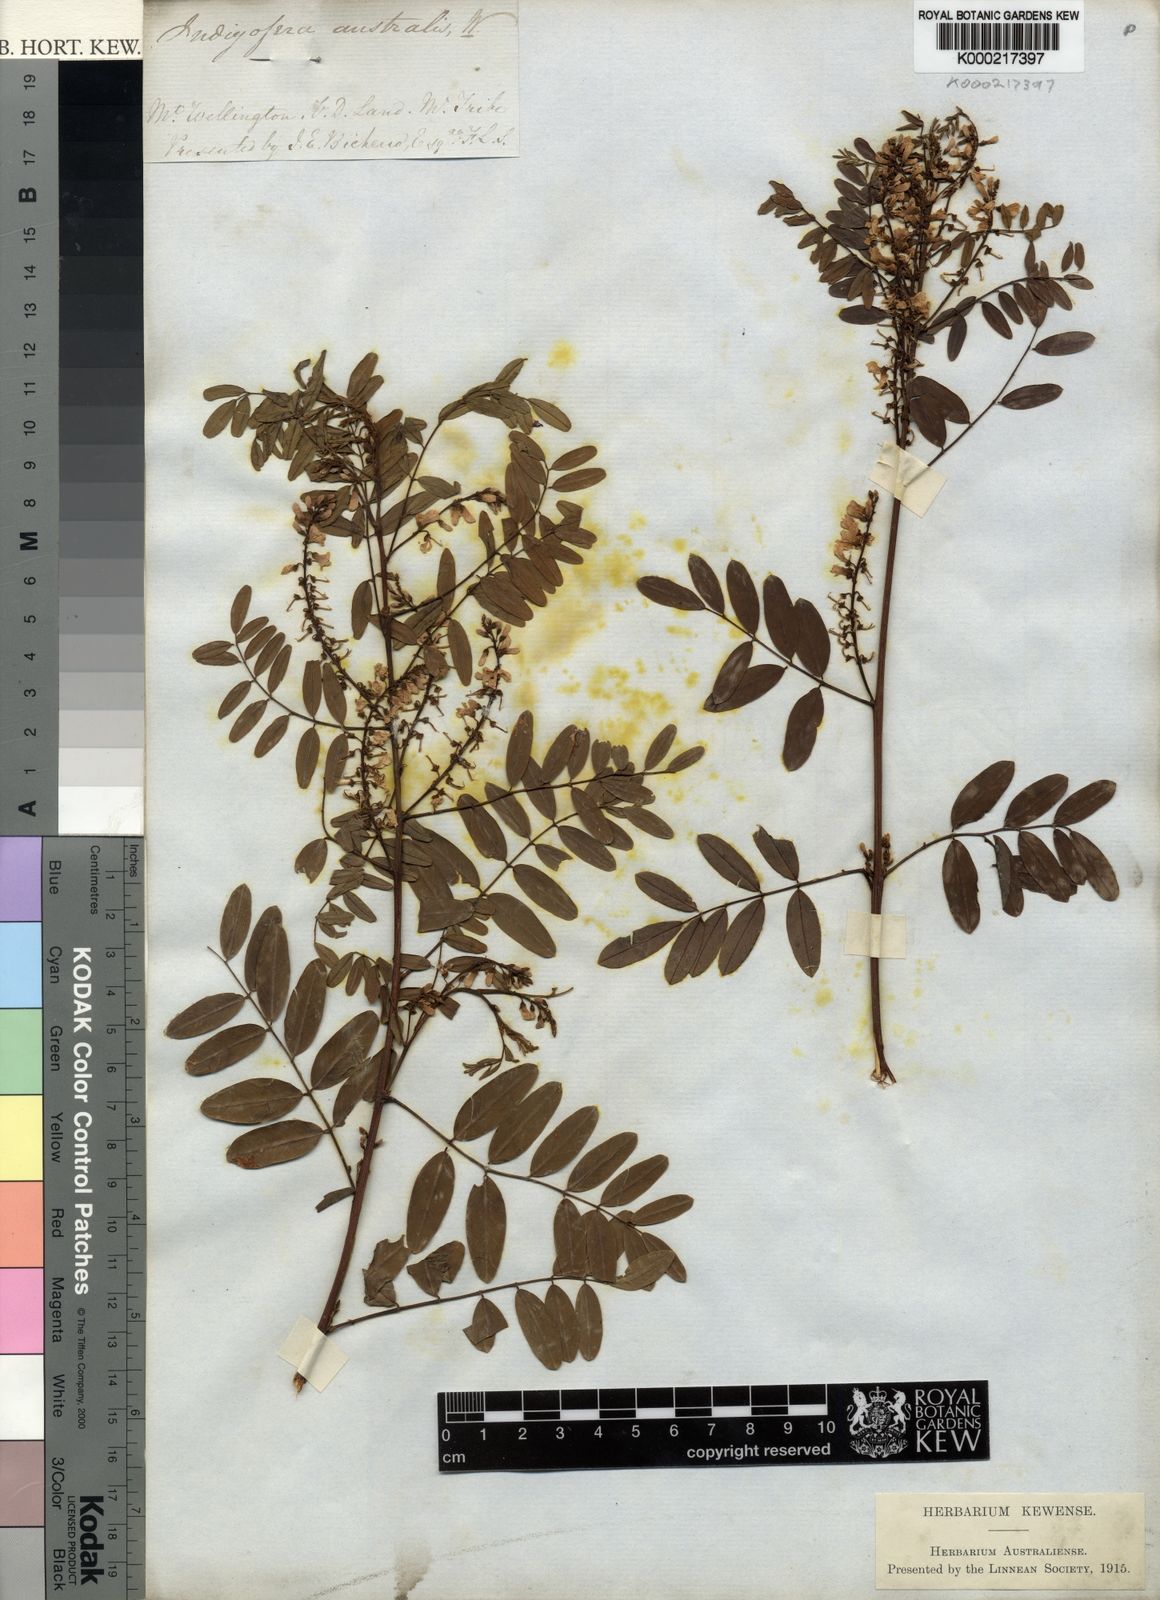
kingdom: Plantae
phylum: Tracheophyta
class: Magnoliopsida
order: Fabales
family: Fabaceae
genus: Indigofera
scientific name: Indigofera australis
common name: Australian indigo
